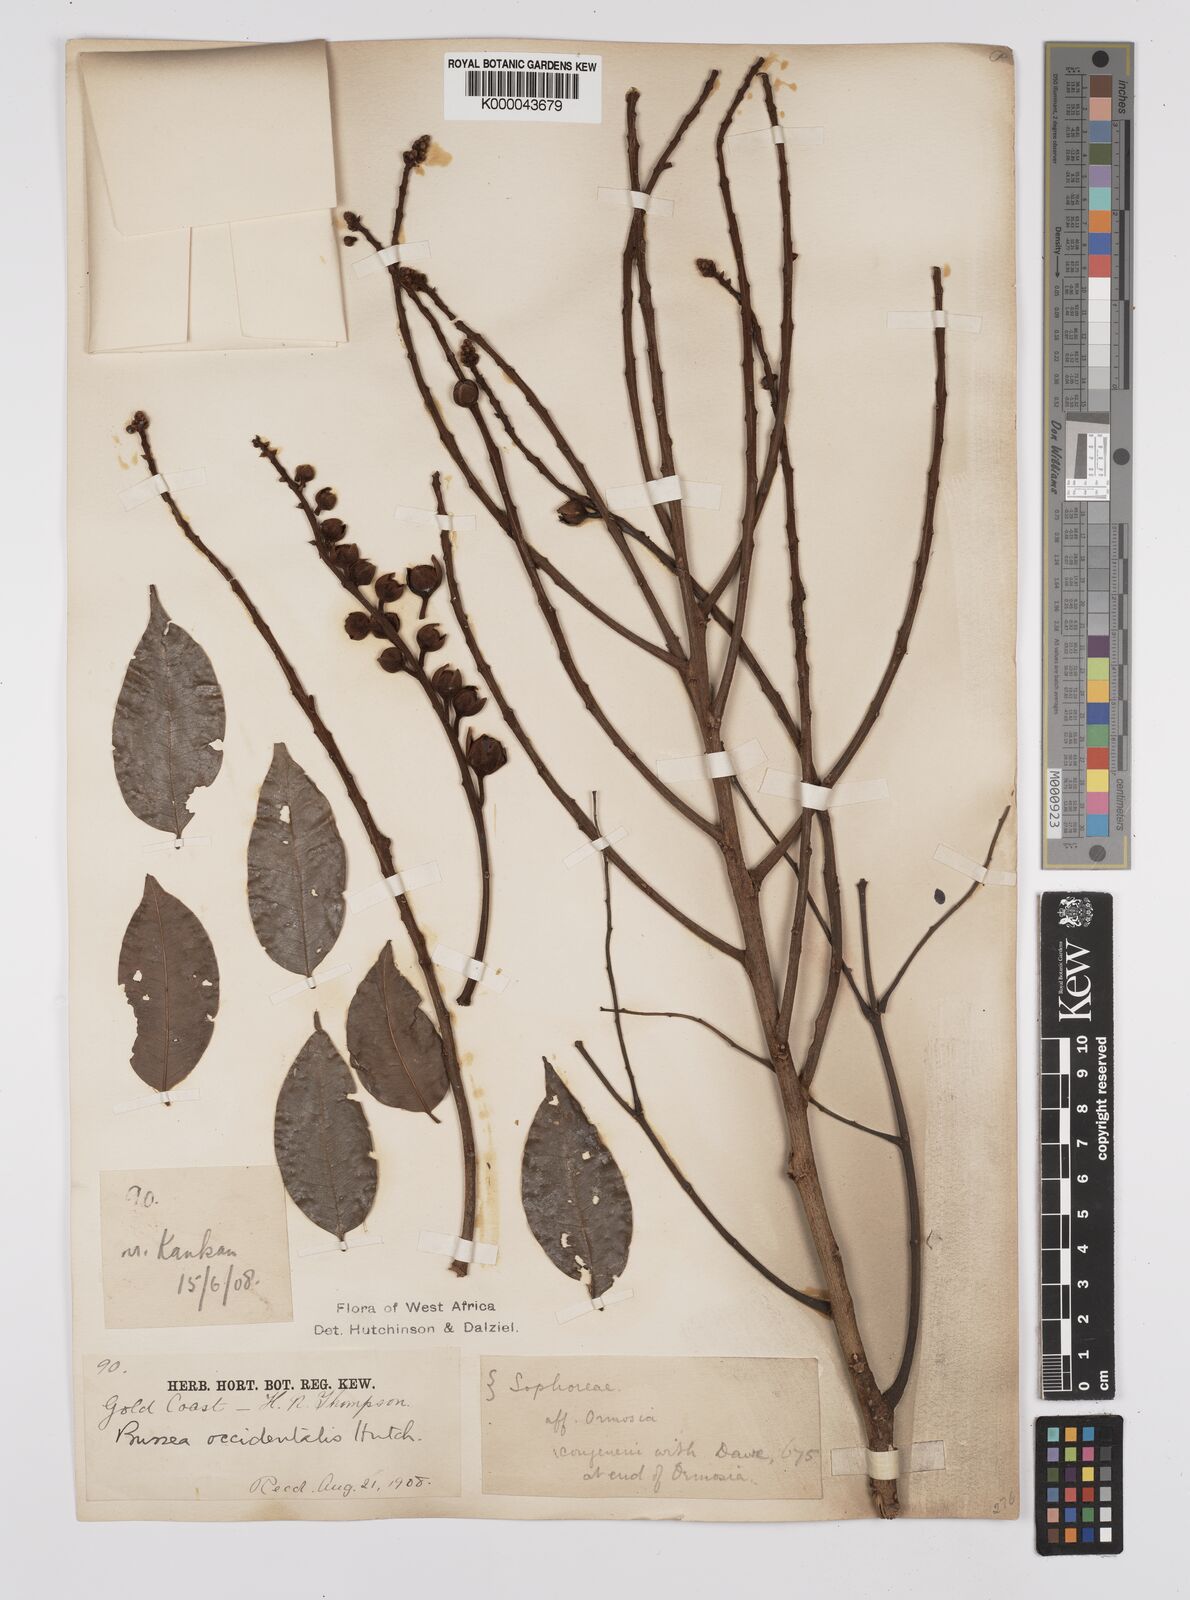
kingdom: Plantae
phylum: Tracheophyta
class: Magnoliopsida
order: Fabales
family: Fabaceae
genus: Bussea
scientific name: Bussea occidentalis
